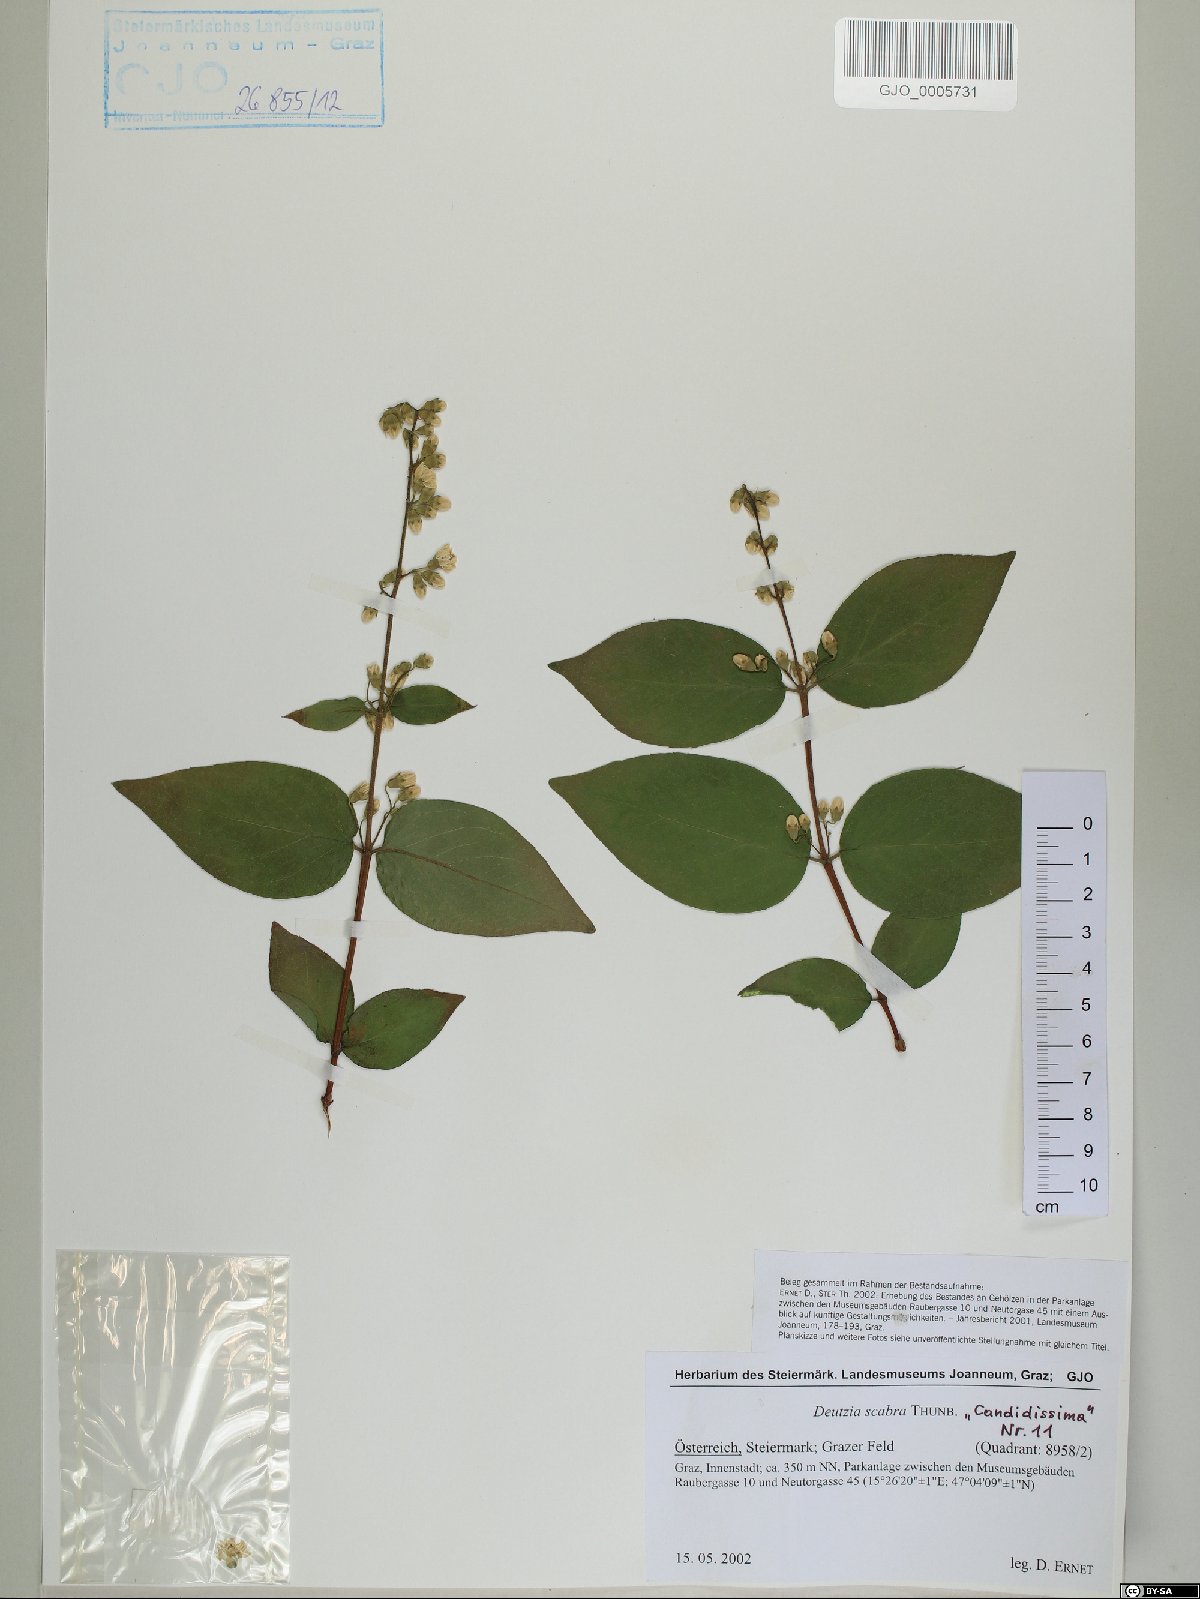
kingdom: Plantae
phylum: Tracheophyta
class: Magnoliopsida
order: Cornales
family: Hydrangeaceae
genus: Deutzia
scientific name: Deutzia scabra
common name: Deutzia
